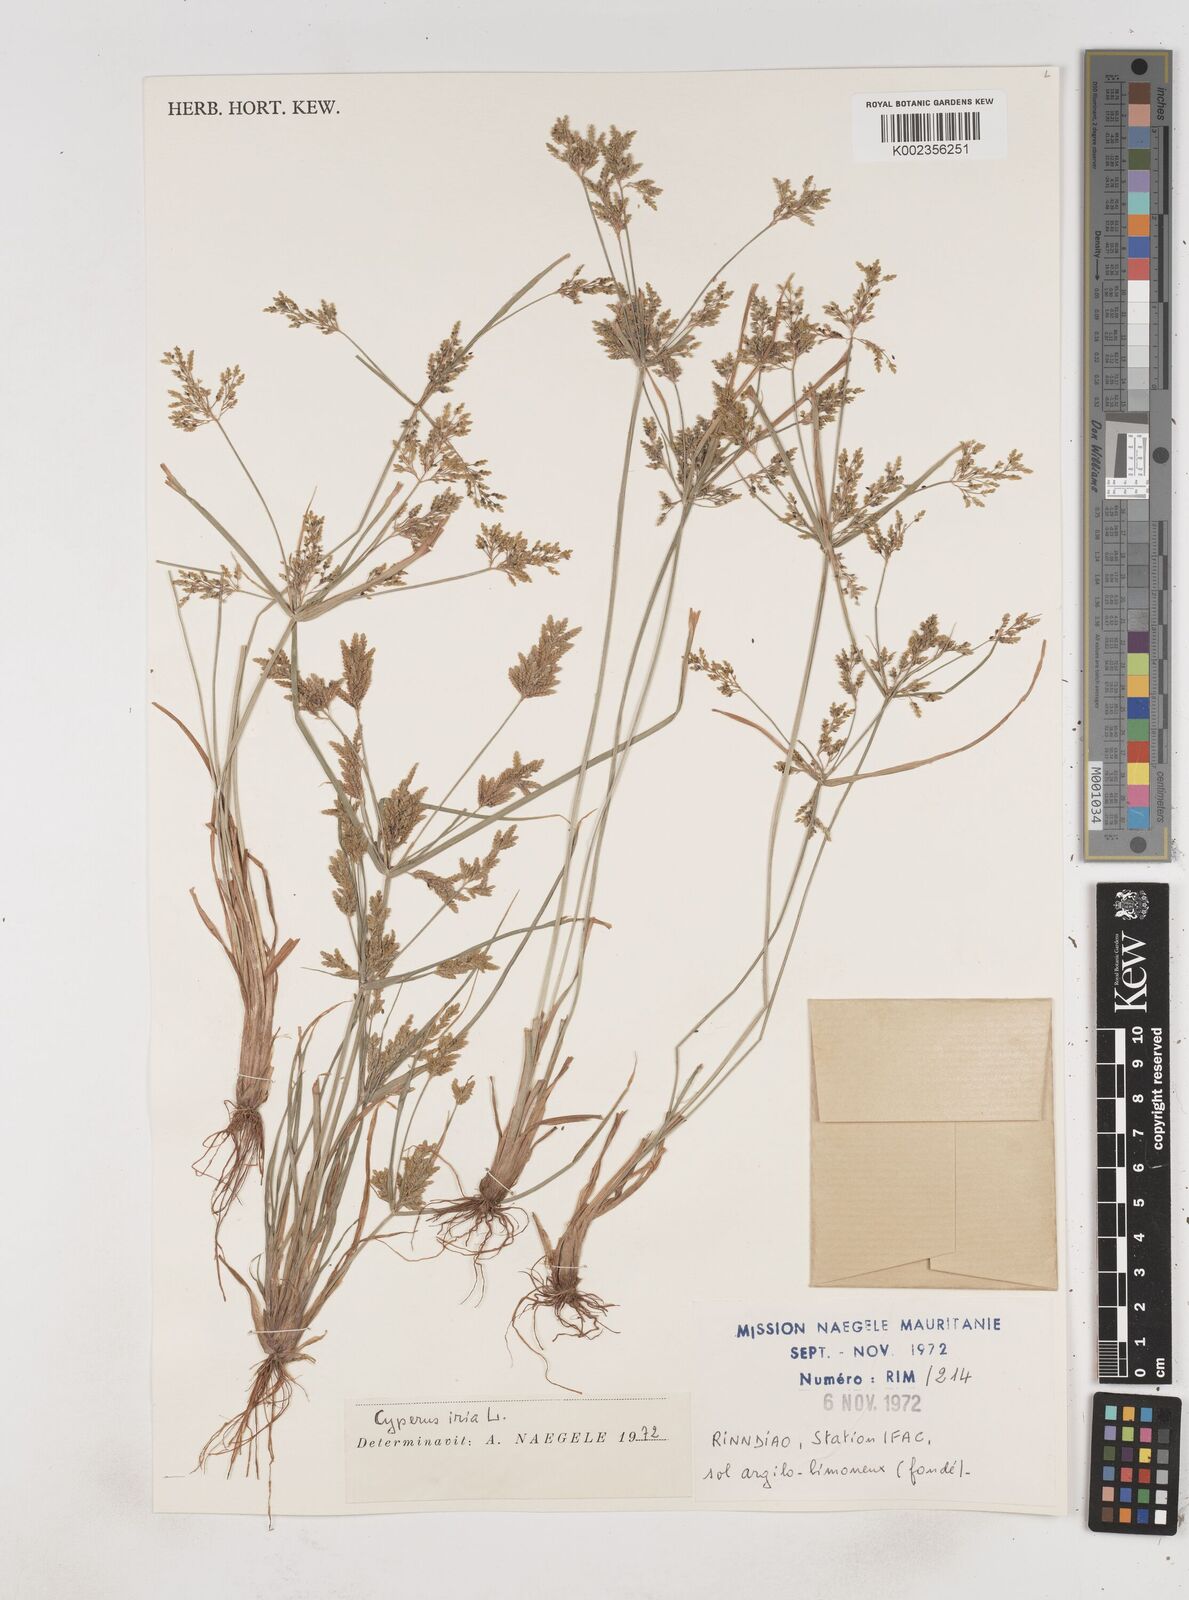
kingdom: Plantae
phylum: Tracheophyta
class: Liliopsida
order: Poales
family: Cyperaceae
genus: Cyperus
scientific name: Cyperus iria
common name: Ricefield flatsedge
